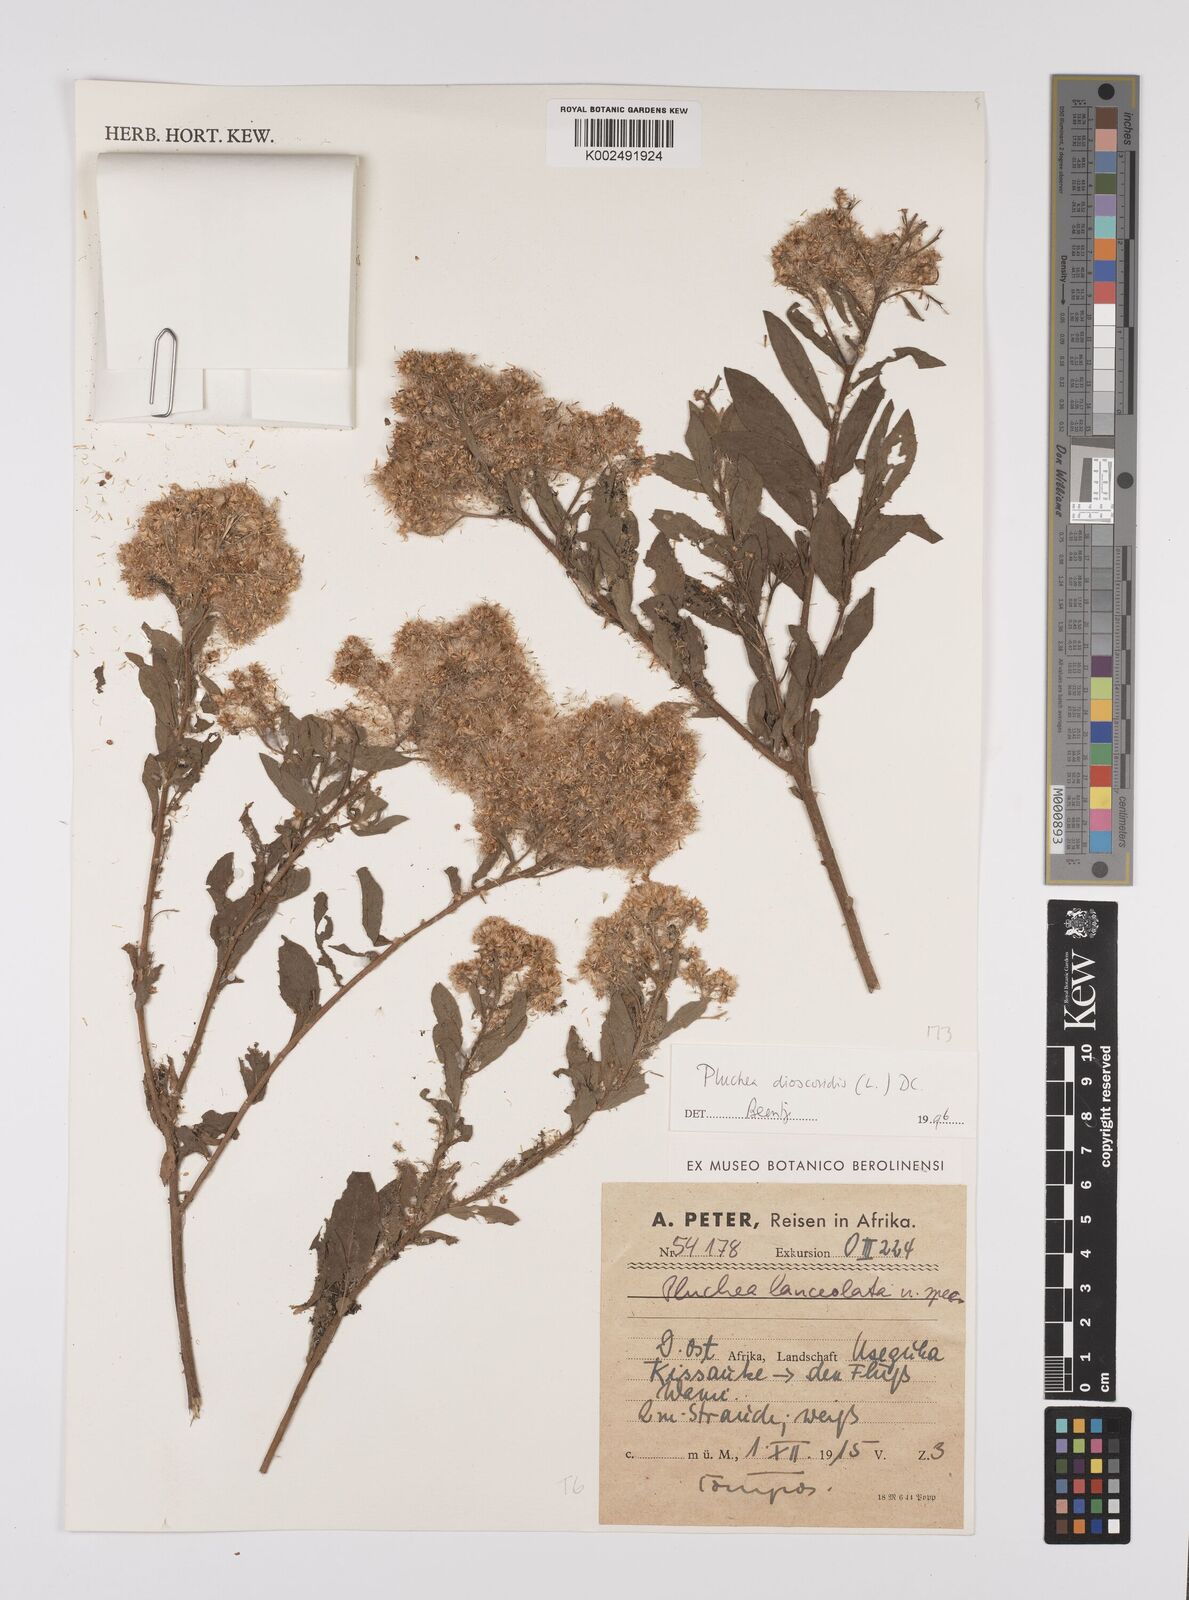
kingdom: Plantae
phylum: Tracheophyta
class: Magnoliopsida
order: Asterales
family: Asteraceae
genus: Pluchea
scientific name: Pluchea dioscoridis
